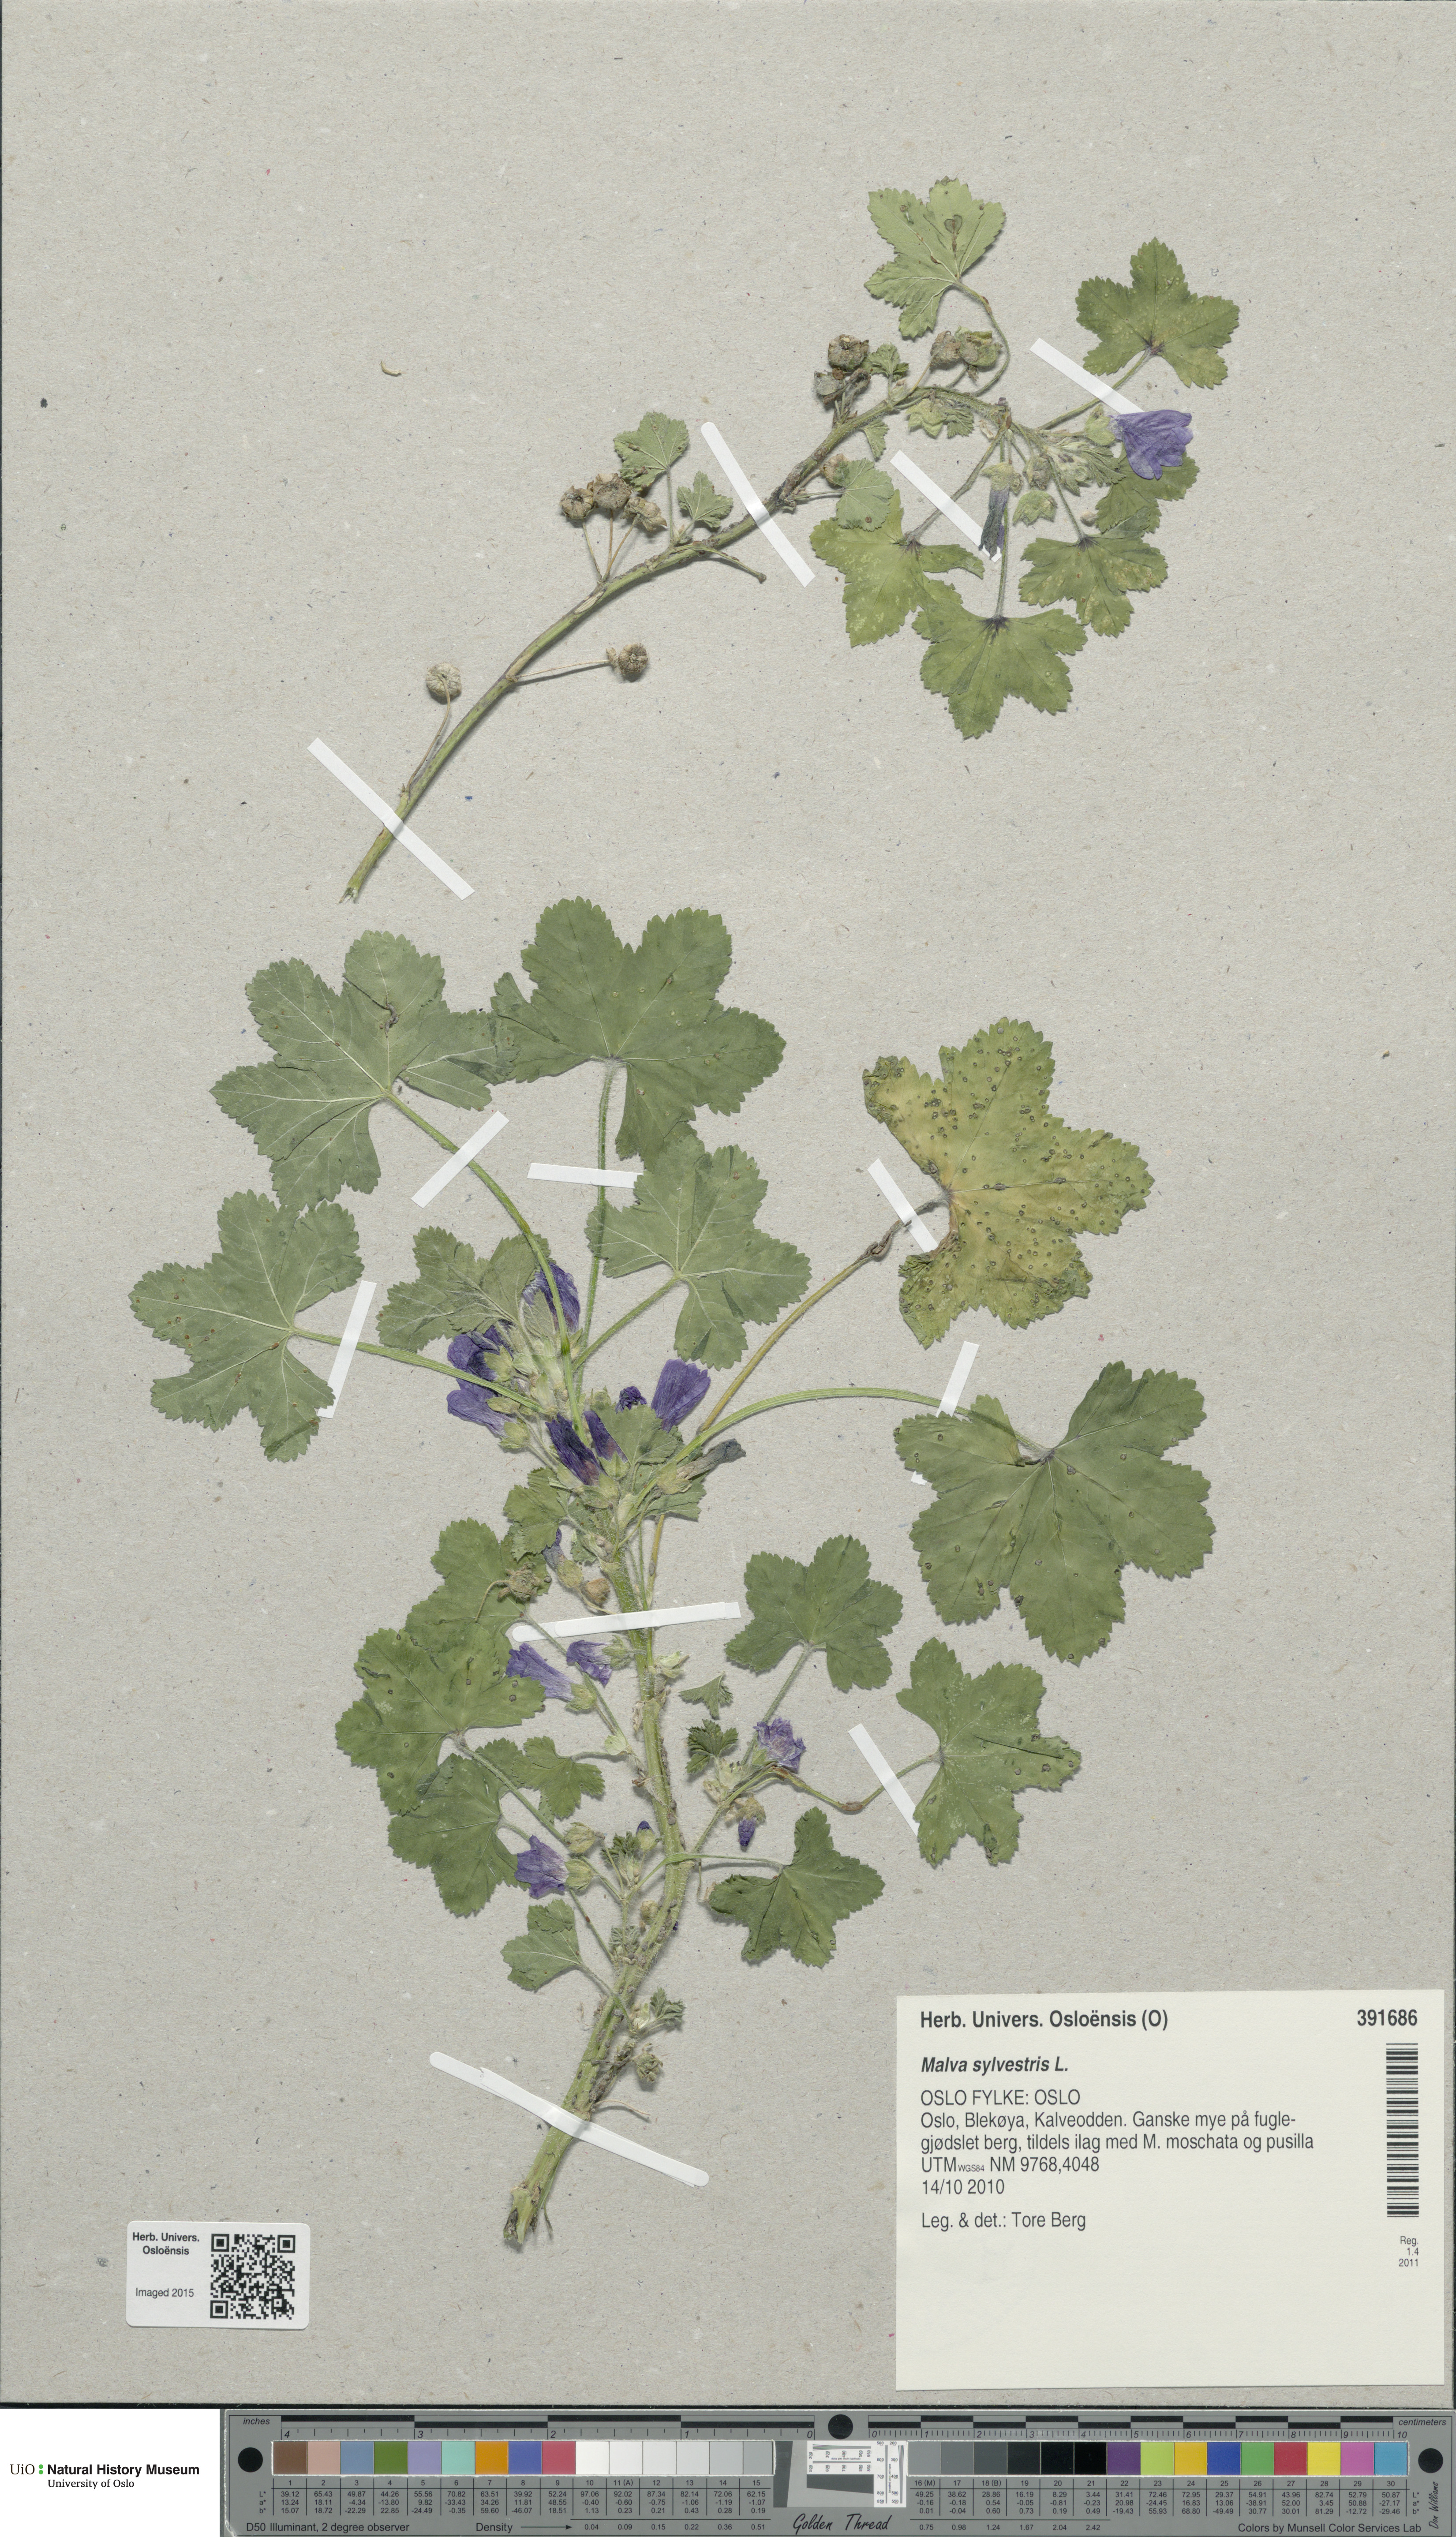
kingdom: Plantae
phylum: Tracheophyta
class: Magnoliopsida
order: Malvales
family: Malvaceae
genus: Malva
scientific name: Malva sylvestris
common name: Common mallow
